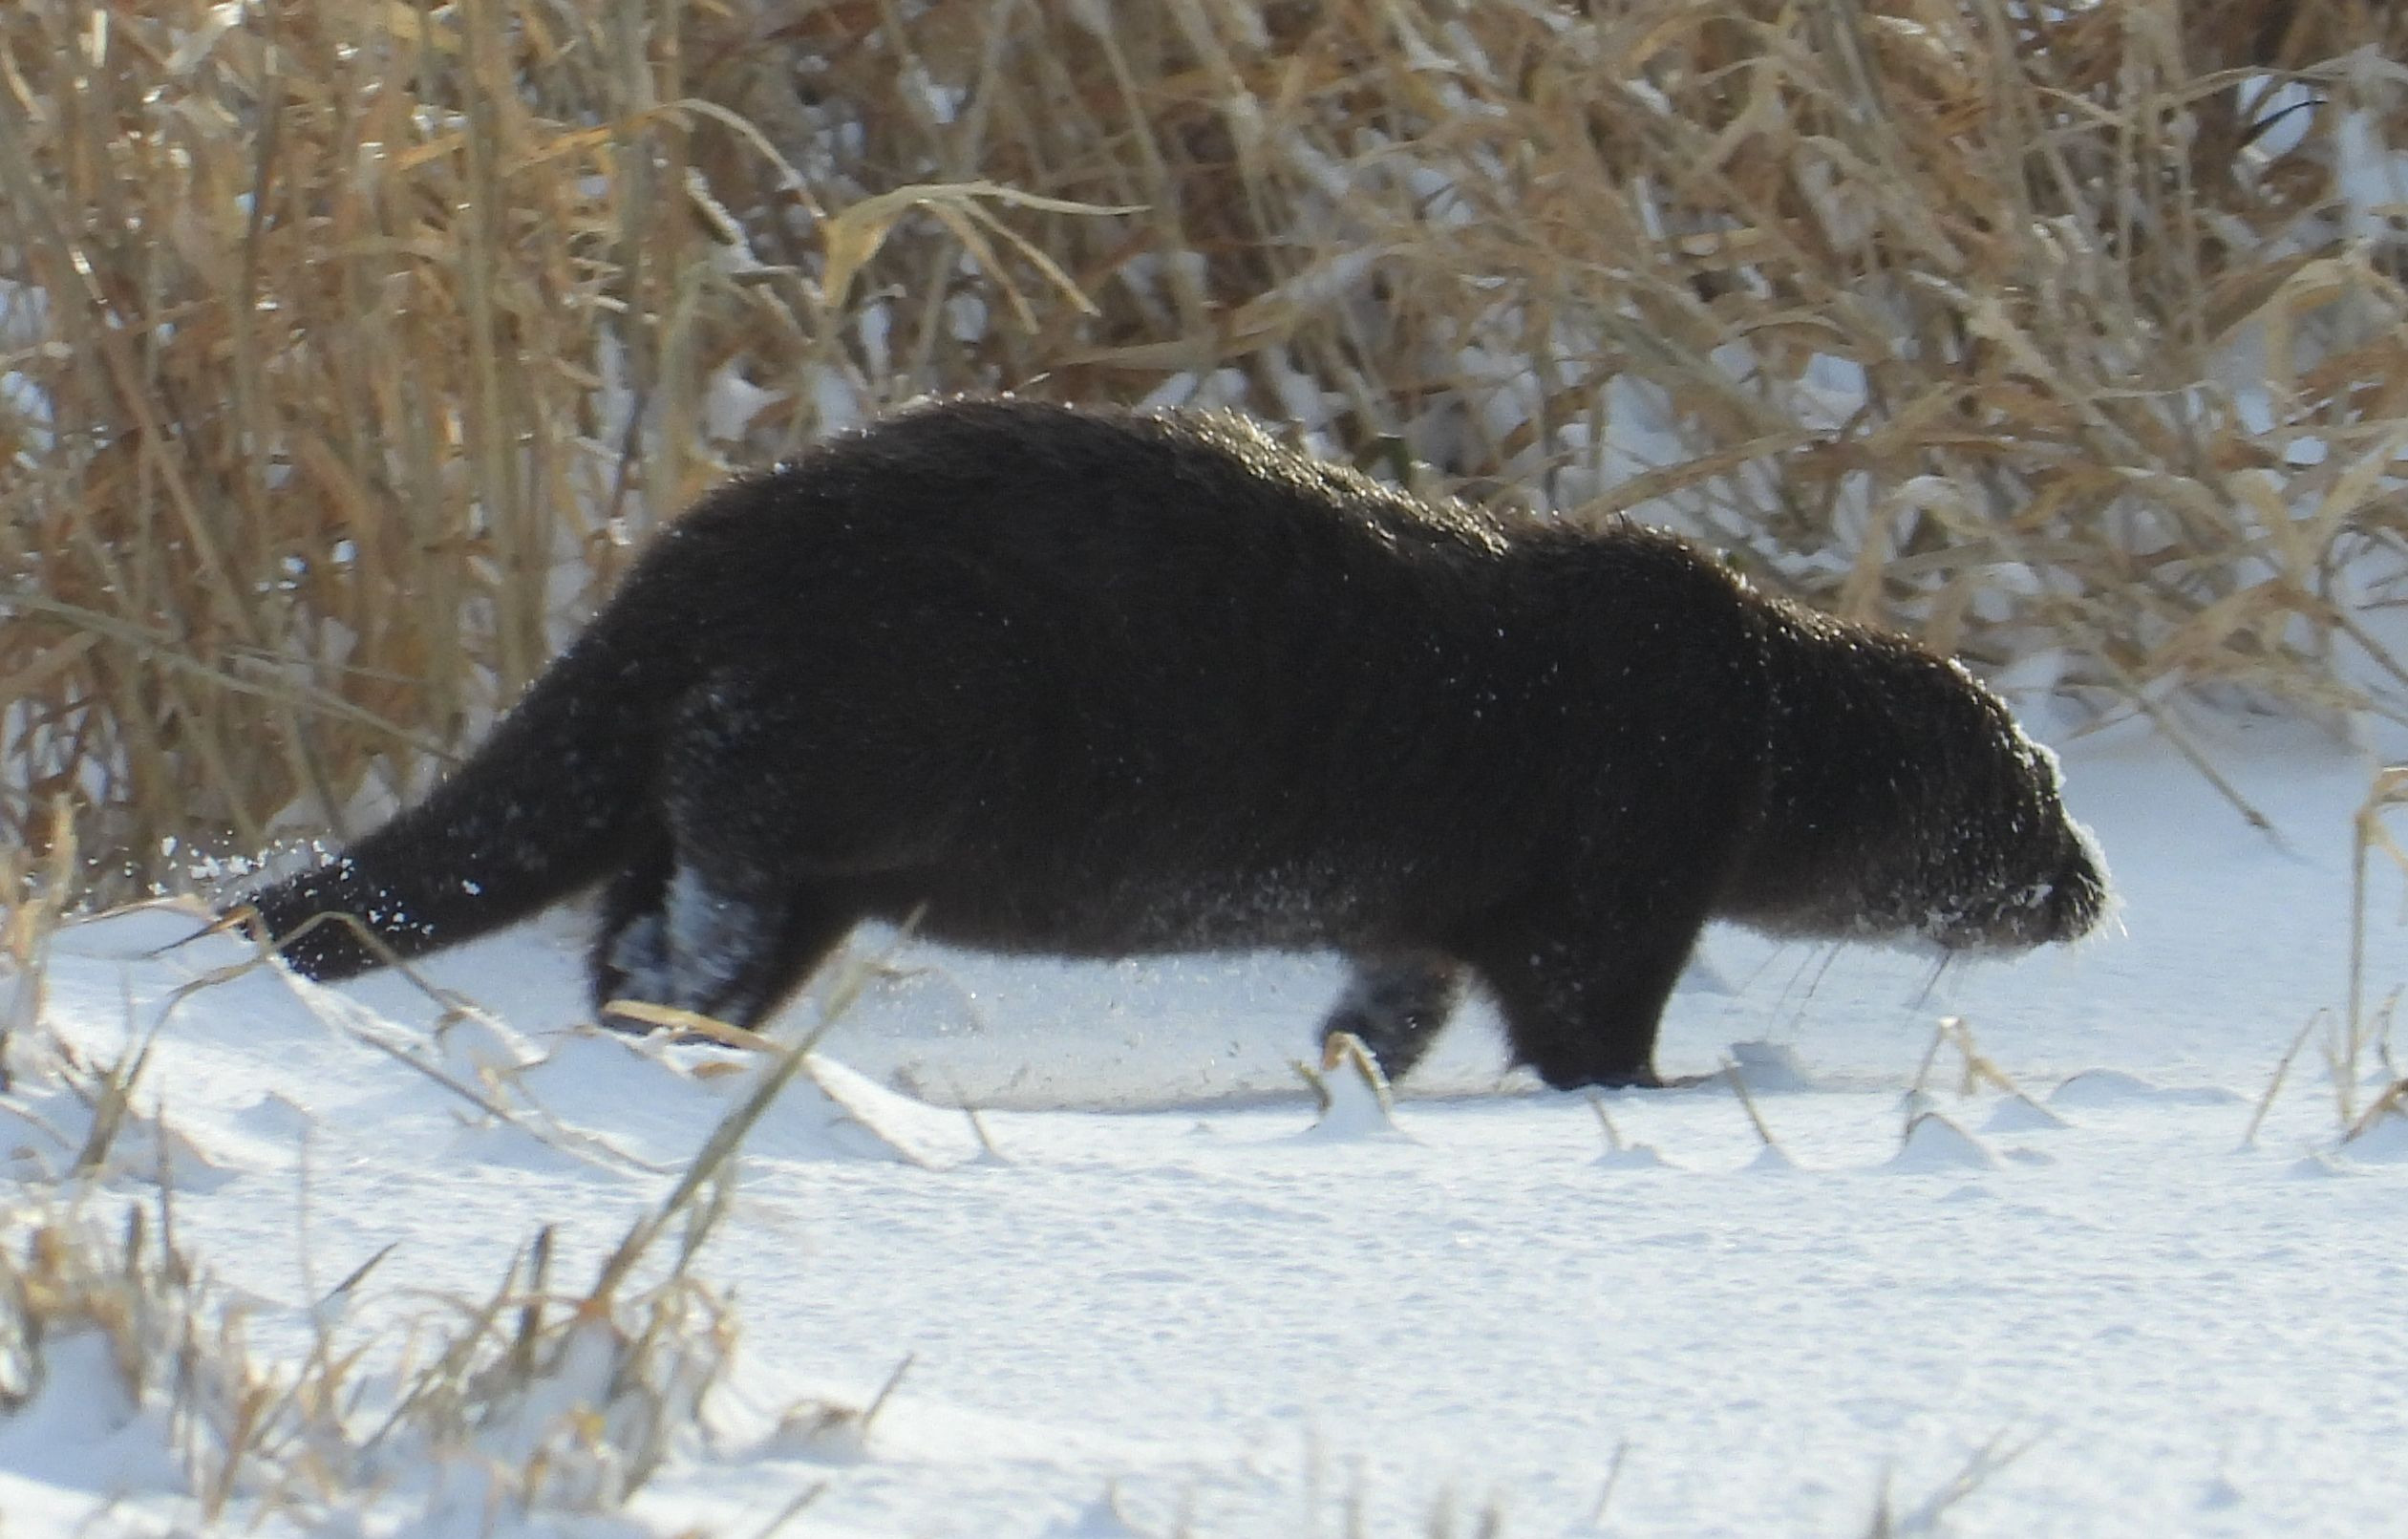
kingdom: Animalia
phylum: Chordata
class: Mammalia
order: Carnivora
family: Mustelidae
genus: Lutra
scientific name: Lutra lutra
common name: Odder
